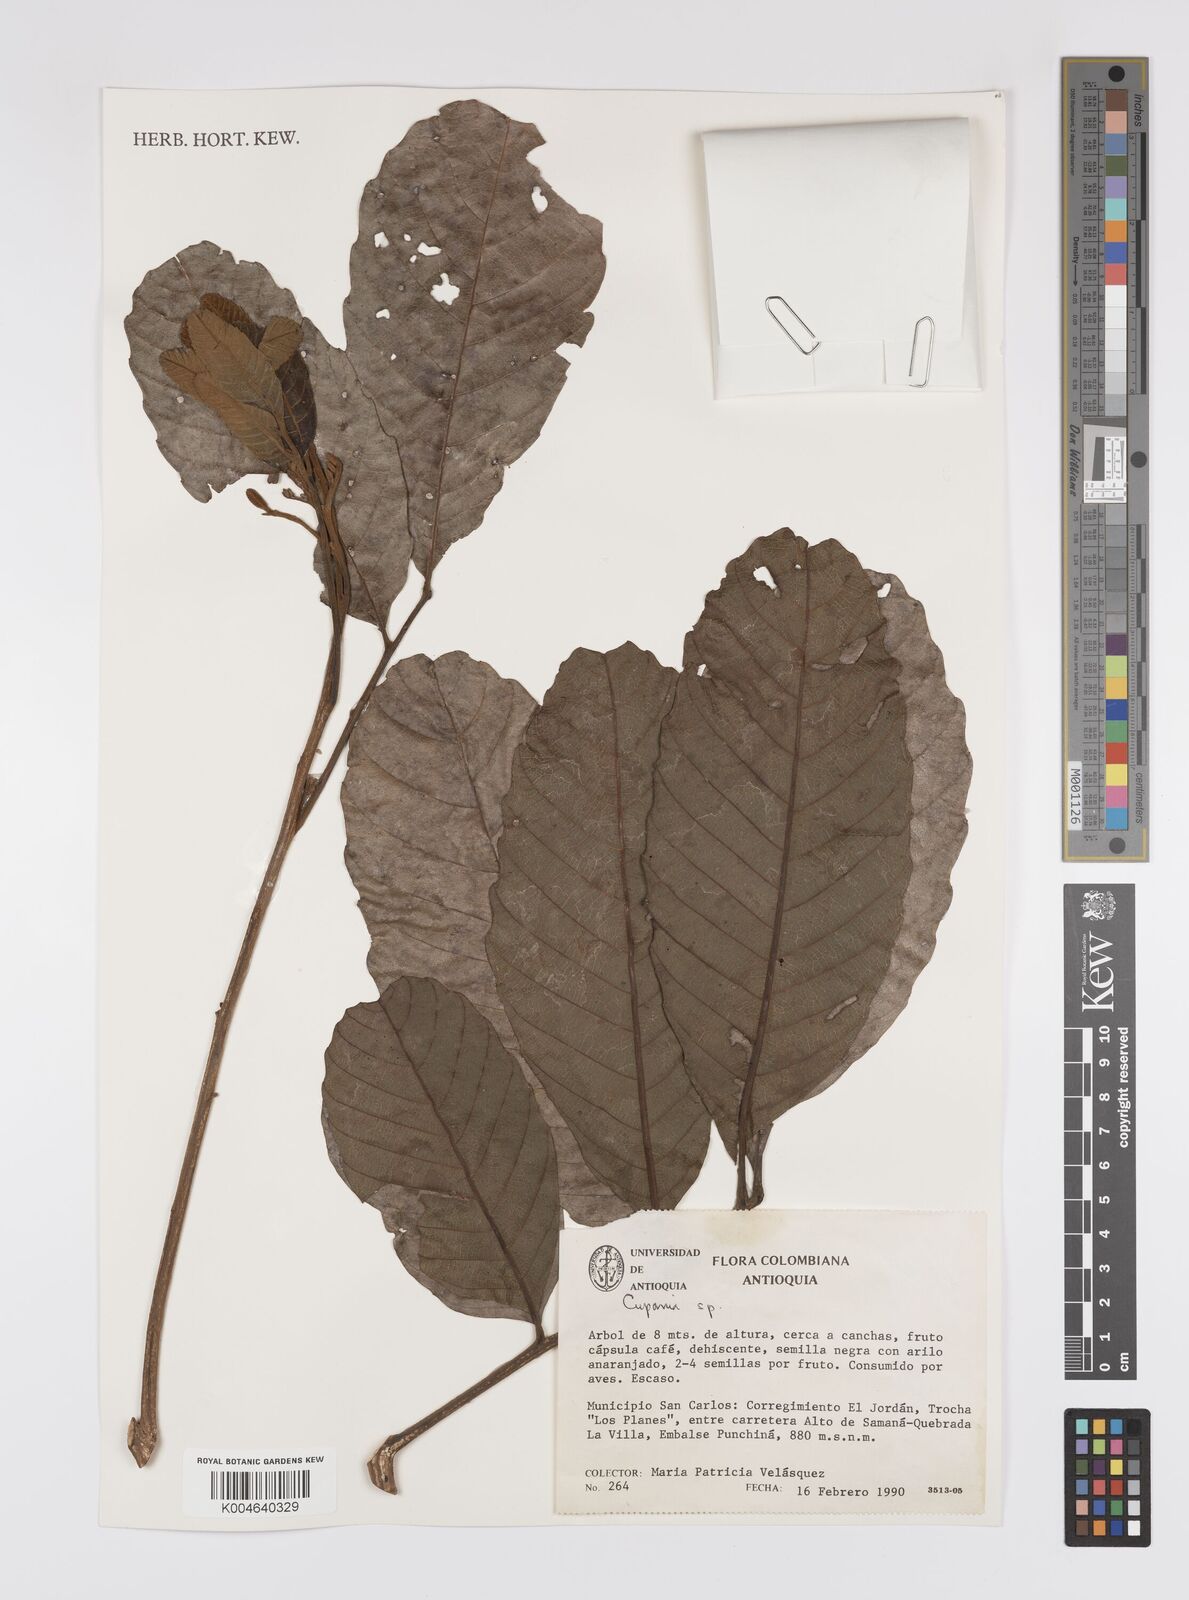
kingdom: Plantae
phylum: Tracheophyta
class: Magnoliopsida
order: Sapindales
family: Sapindaceae
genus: Cupania
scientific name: Cupania
